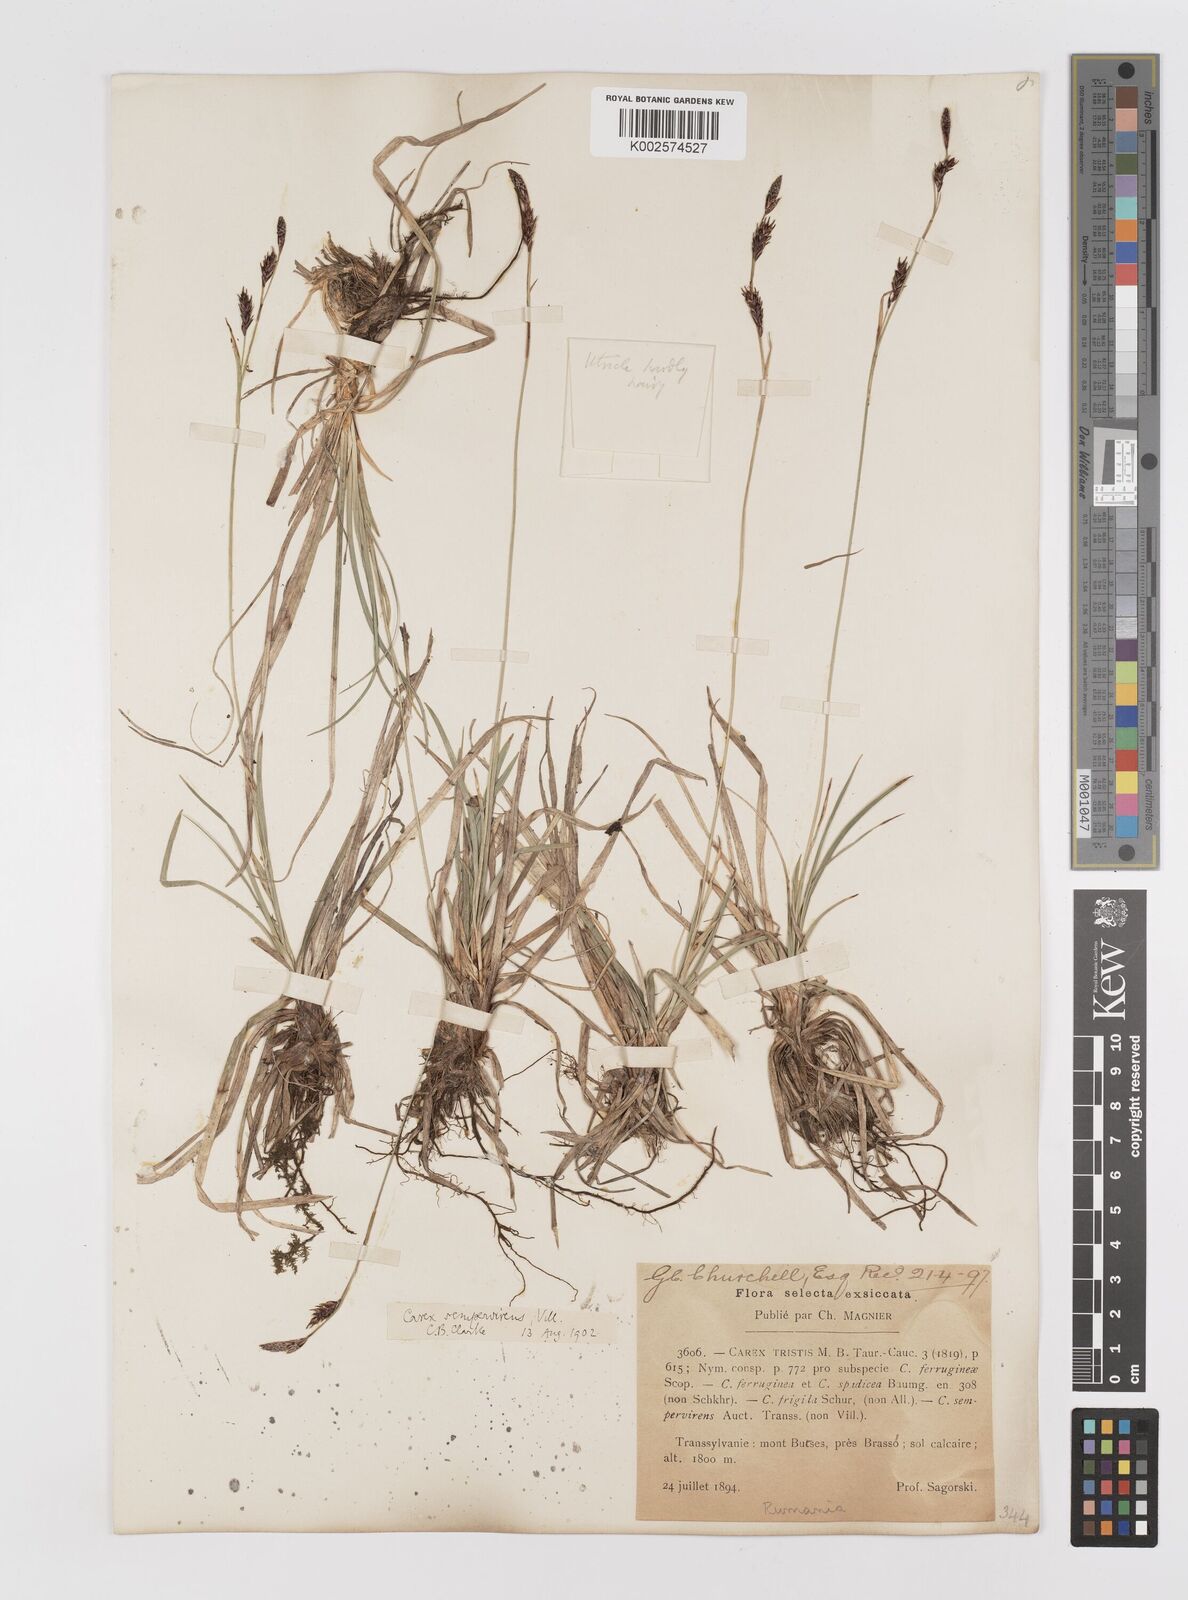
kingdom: Plantae
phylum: Tracheophyta
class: Liliopsida
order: Poales
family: Cyperaceae
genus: Carex
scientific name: Carex sempervirens
